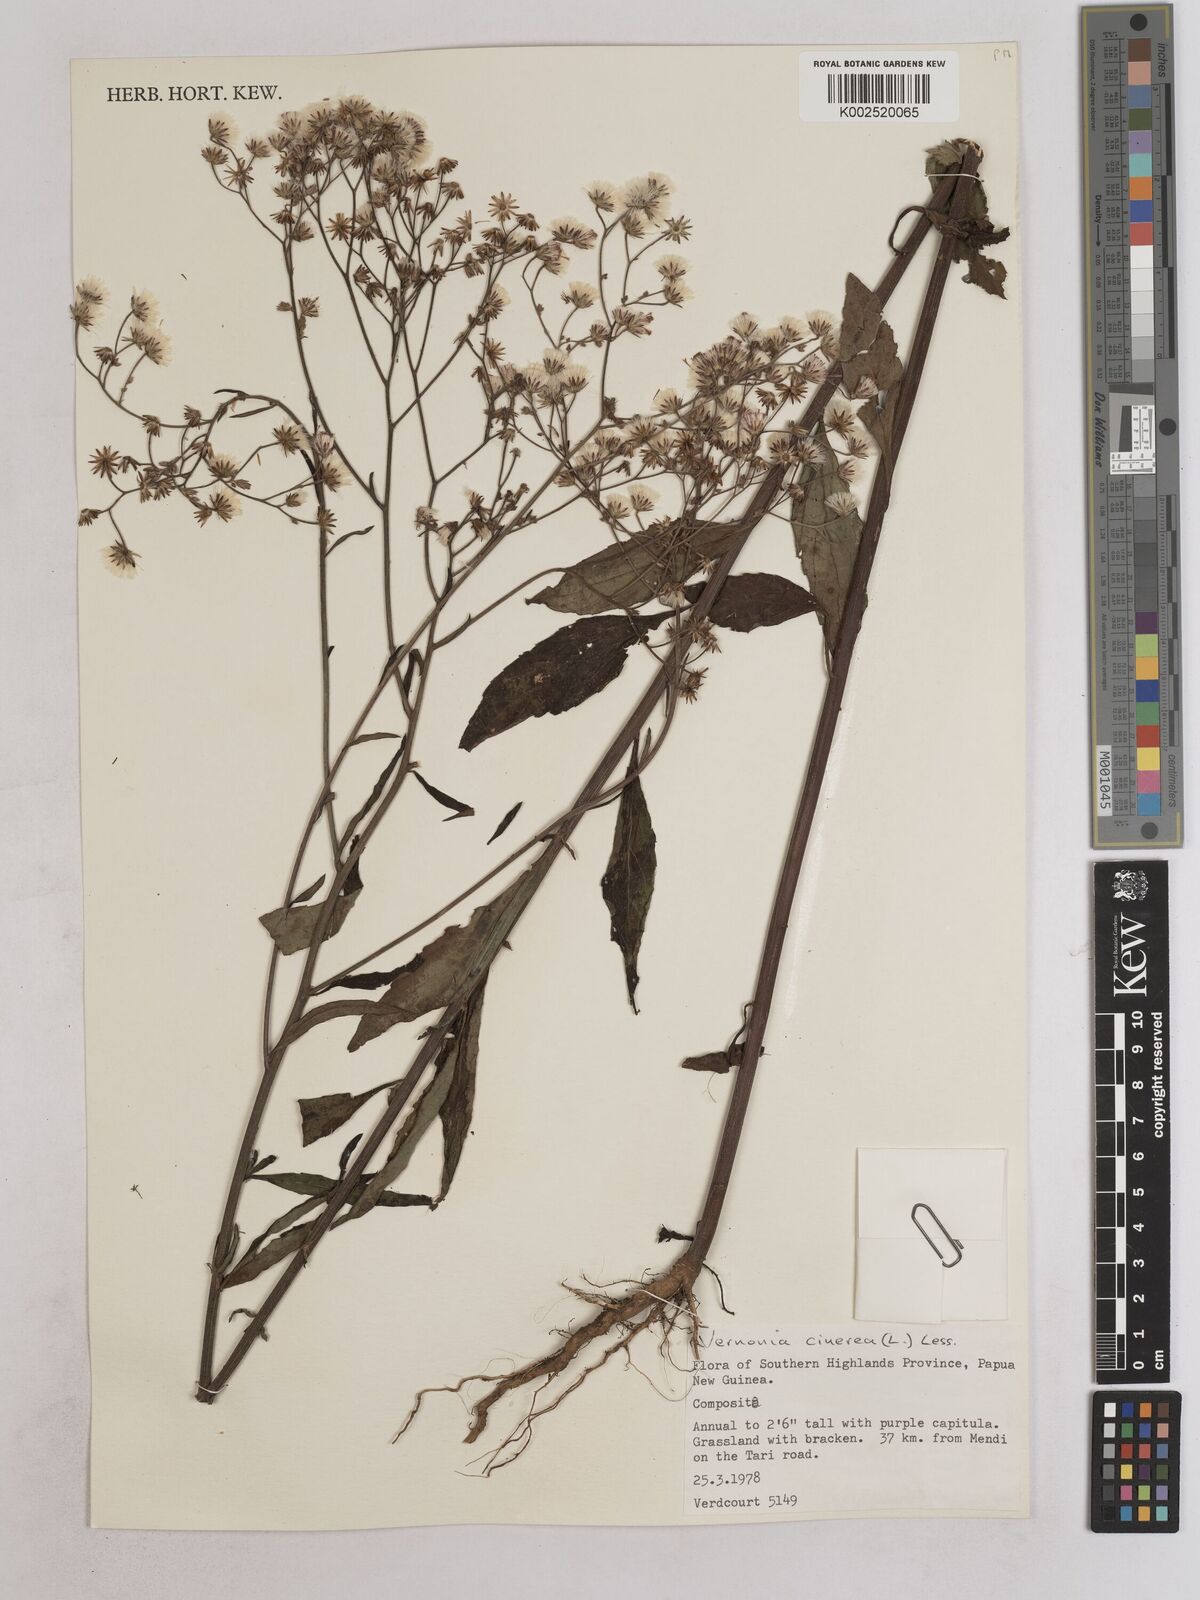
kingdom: Plantae
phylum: Tracheophyta
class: Magnoliopsida
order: Asterales
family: Asteraceae
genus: Cyanthillium
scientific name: Cyanthillium cinereum
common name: Little ironweed
